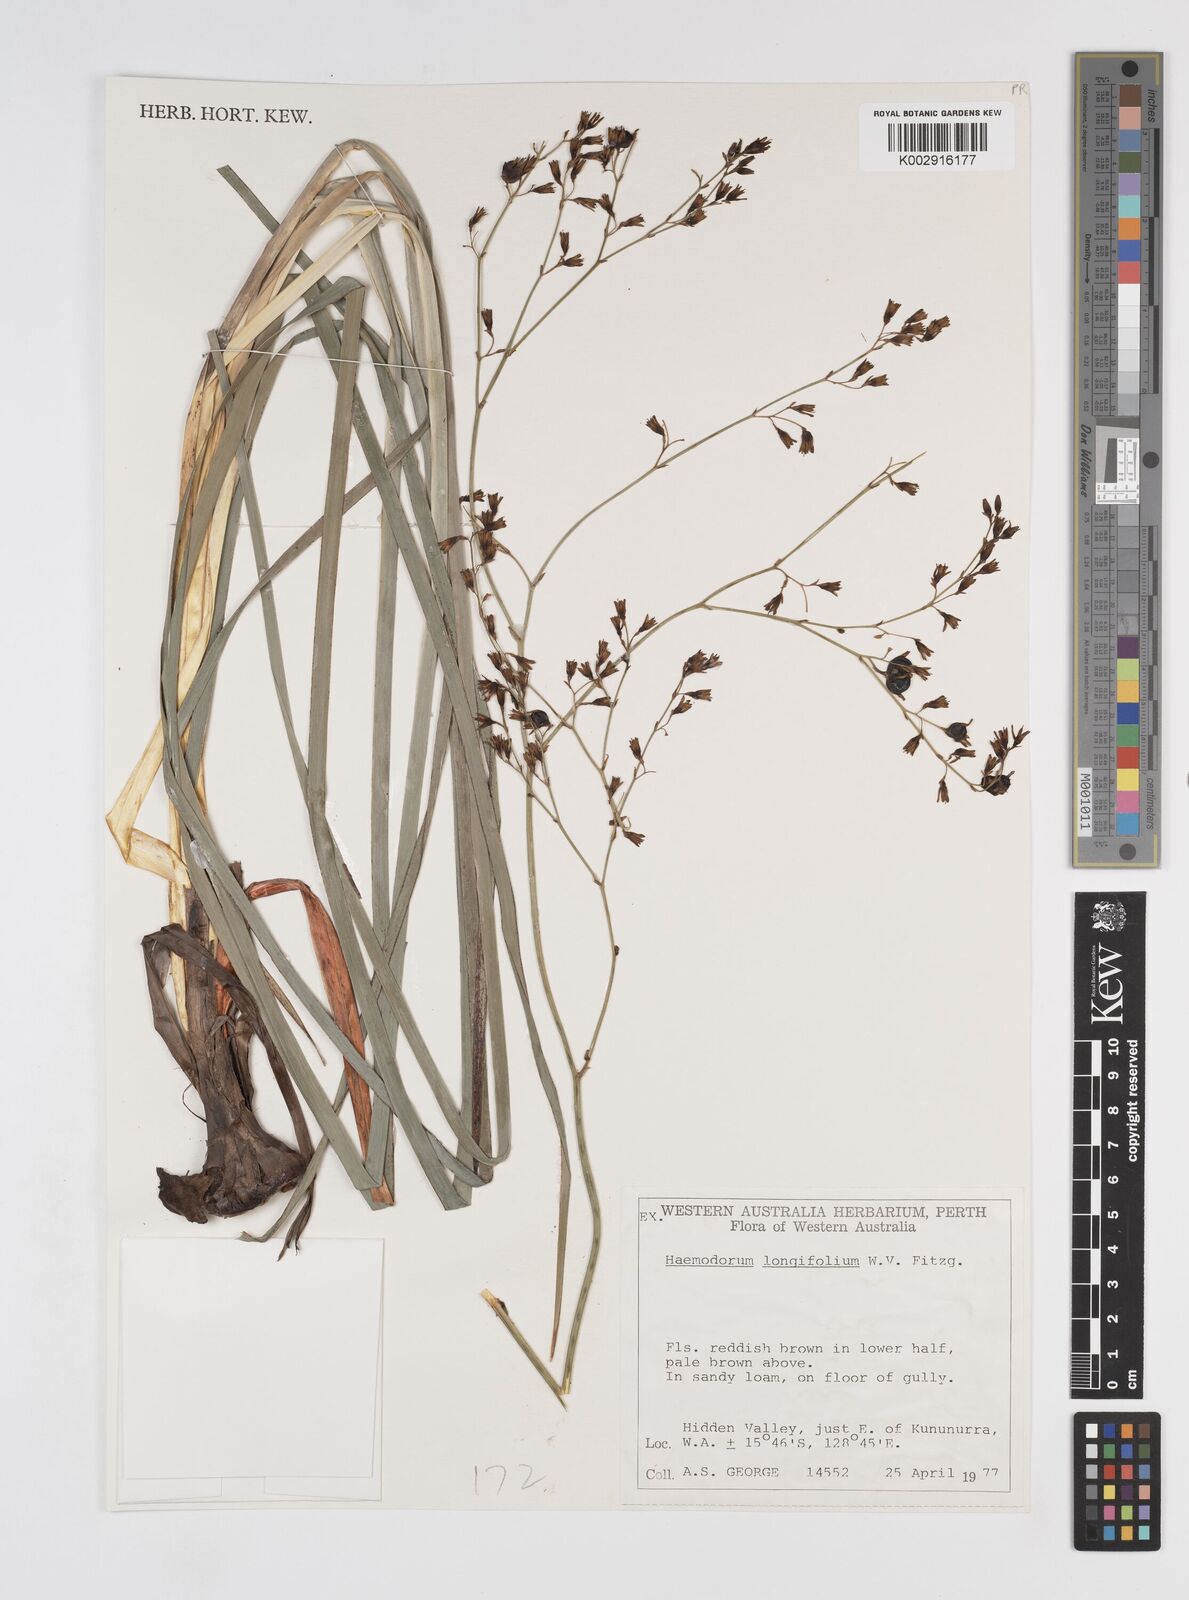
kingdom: Plantae
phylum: Tracheophyta
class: Liliopsida
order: Commelinales
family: Haemodoraceae
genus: Haemodorum
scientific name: Haemodorum ensifolium
